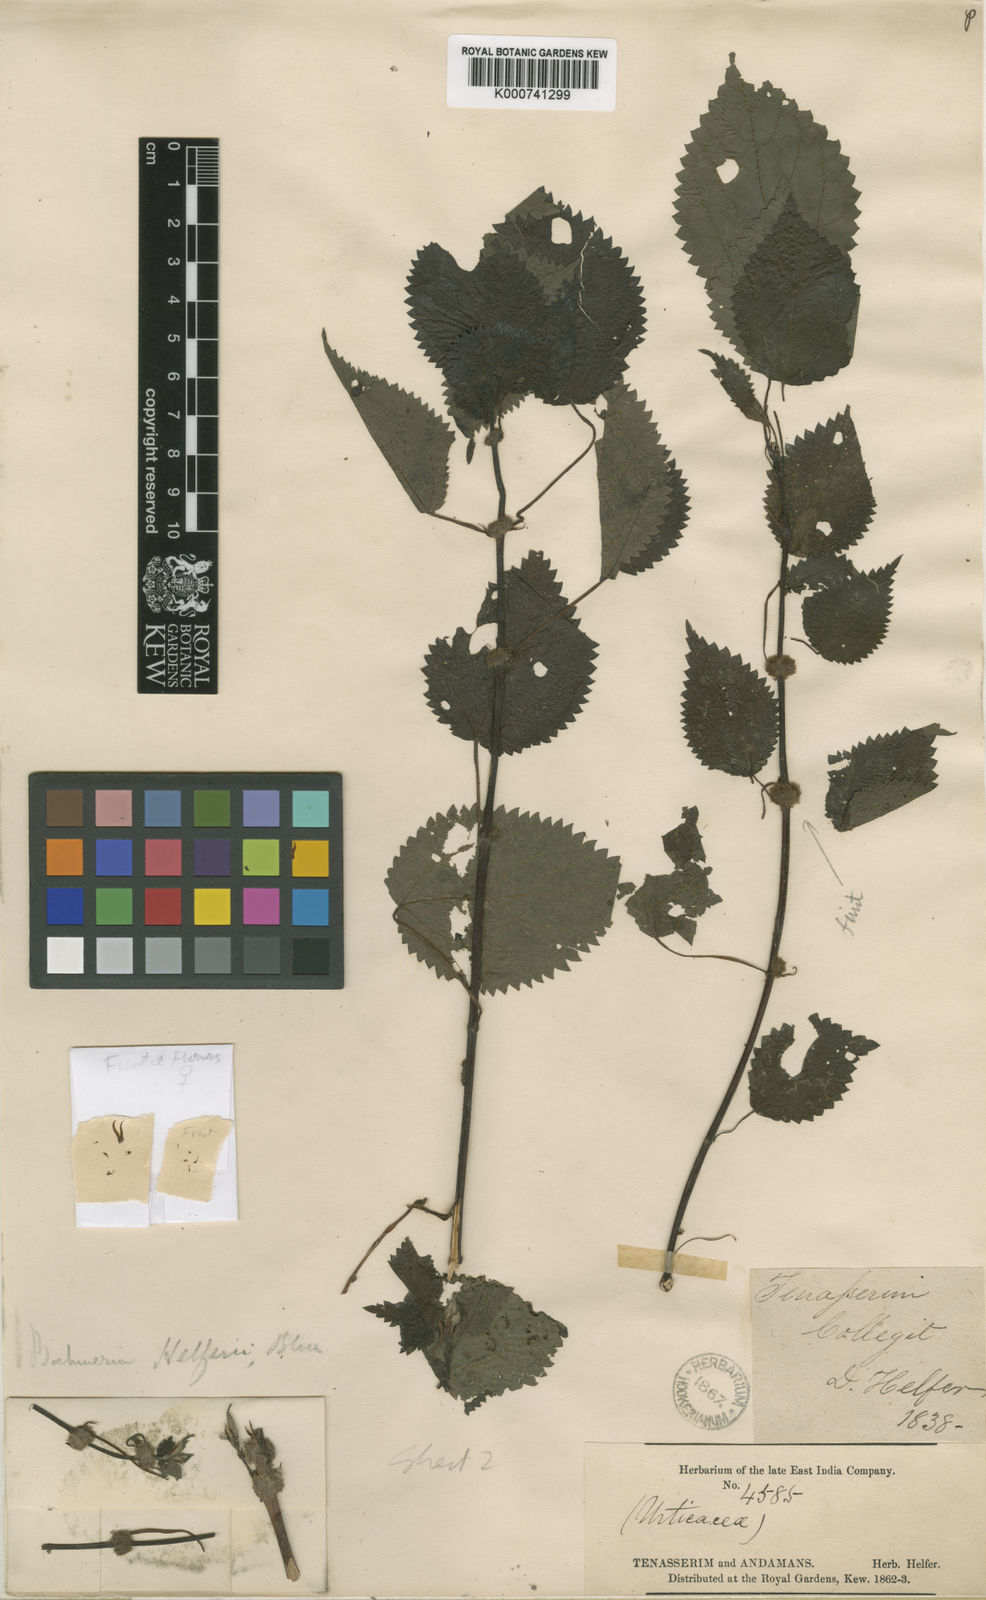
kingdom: Plantae
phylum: Tracheophyta
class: Magnoliopsida
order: Rosales
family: Urticaceae
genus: Boehmeria
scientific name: Boehmeria helferi
